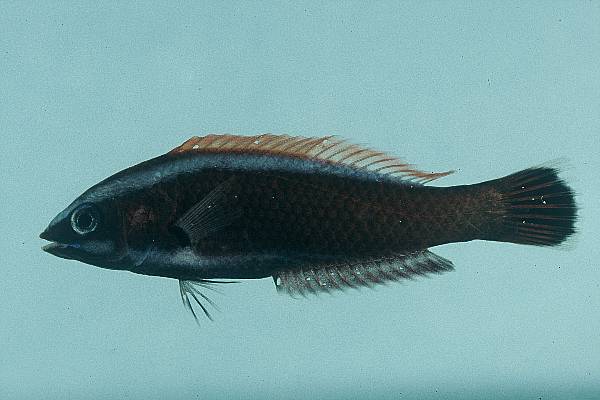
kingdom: Animalia
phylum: Chordata
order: Perciformes
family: Labridae
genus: Pseudodax
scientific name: Pseudodax moluccanus
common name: Chiseltooth wrasse
